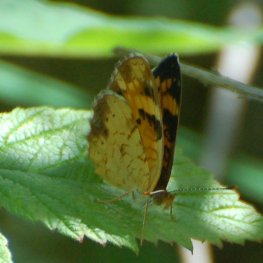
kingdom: Animalia
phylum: Arthropoda
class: Insecta
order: Lepidoptera
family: Nymphalidae
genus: Phyciodes
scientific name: Phyciodes tharos
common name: Northern Crescent
